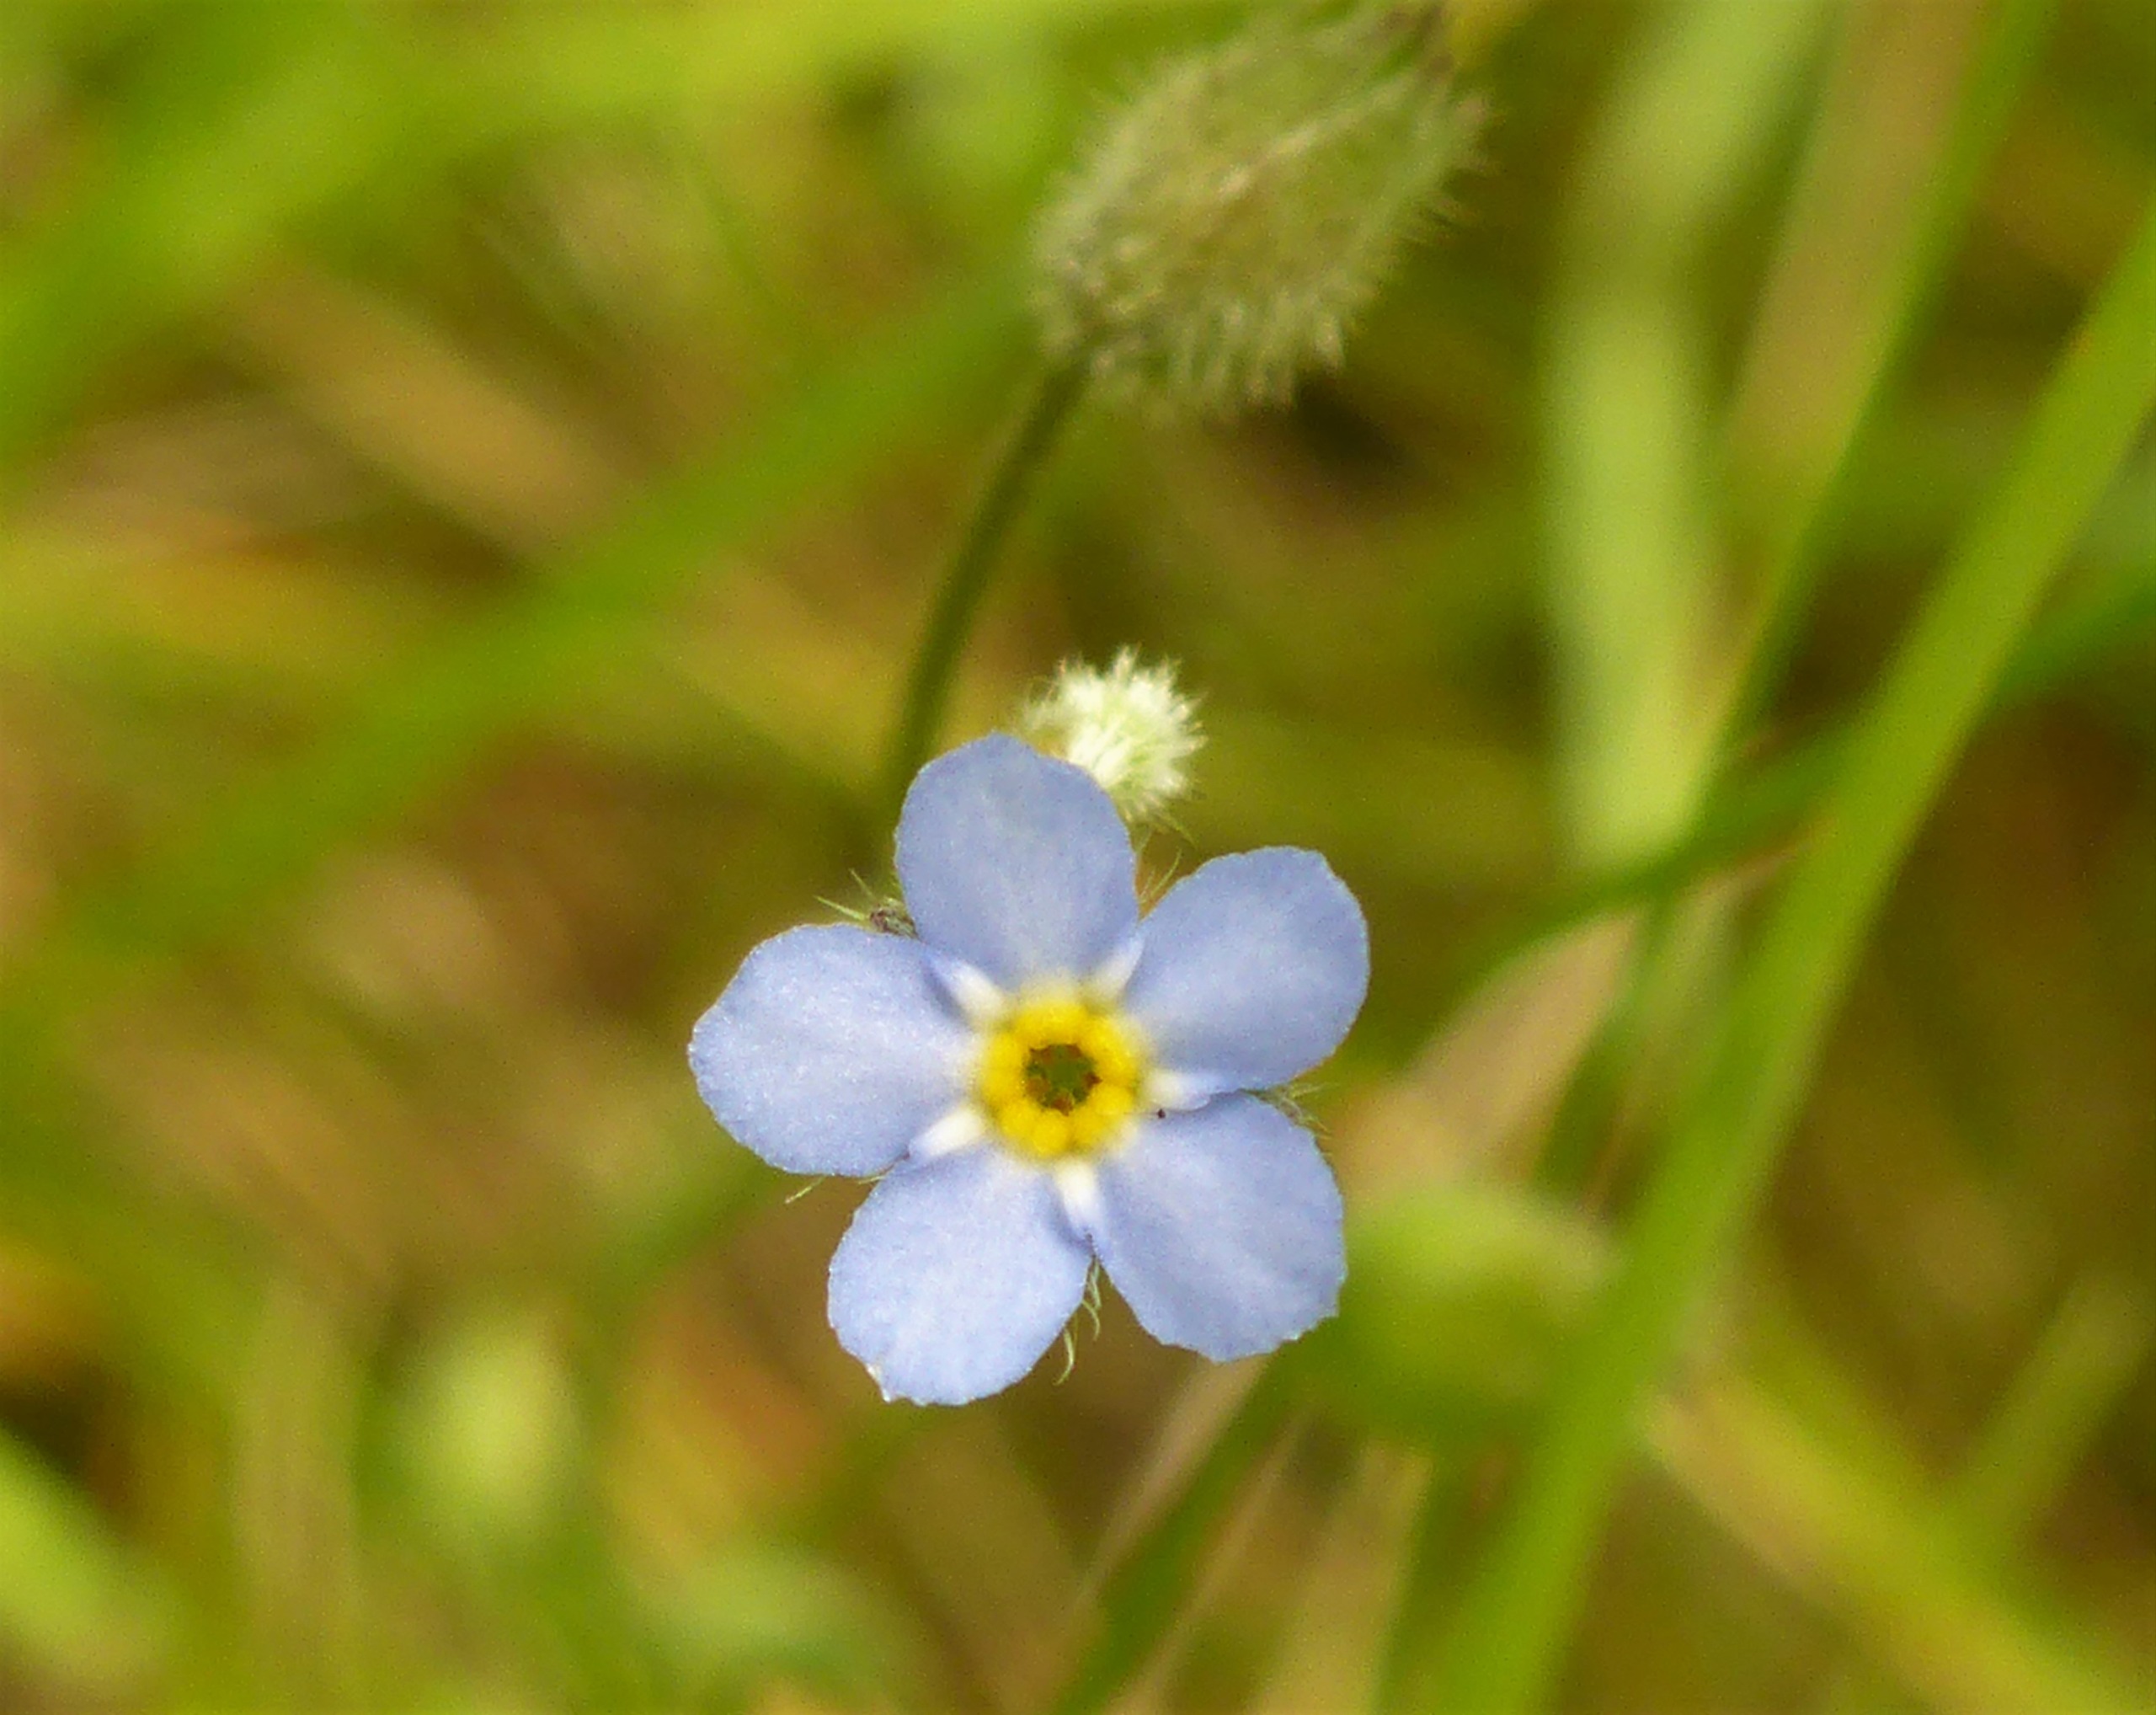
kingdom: Plantae
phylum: Tracheophyta
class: Magnoliopsida
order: Boraginales
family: Boraginaceae
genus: Myosotis
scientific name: Myosotis arvensis
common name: Mark-forglemmigej
